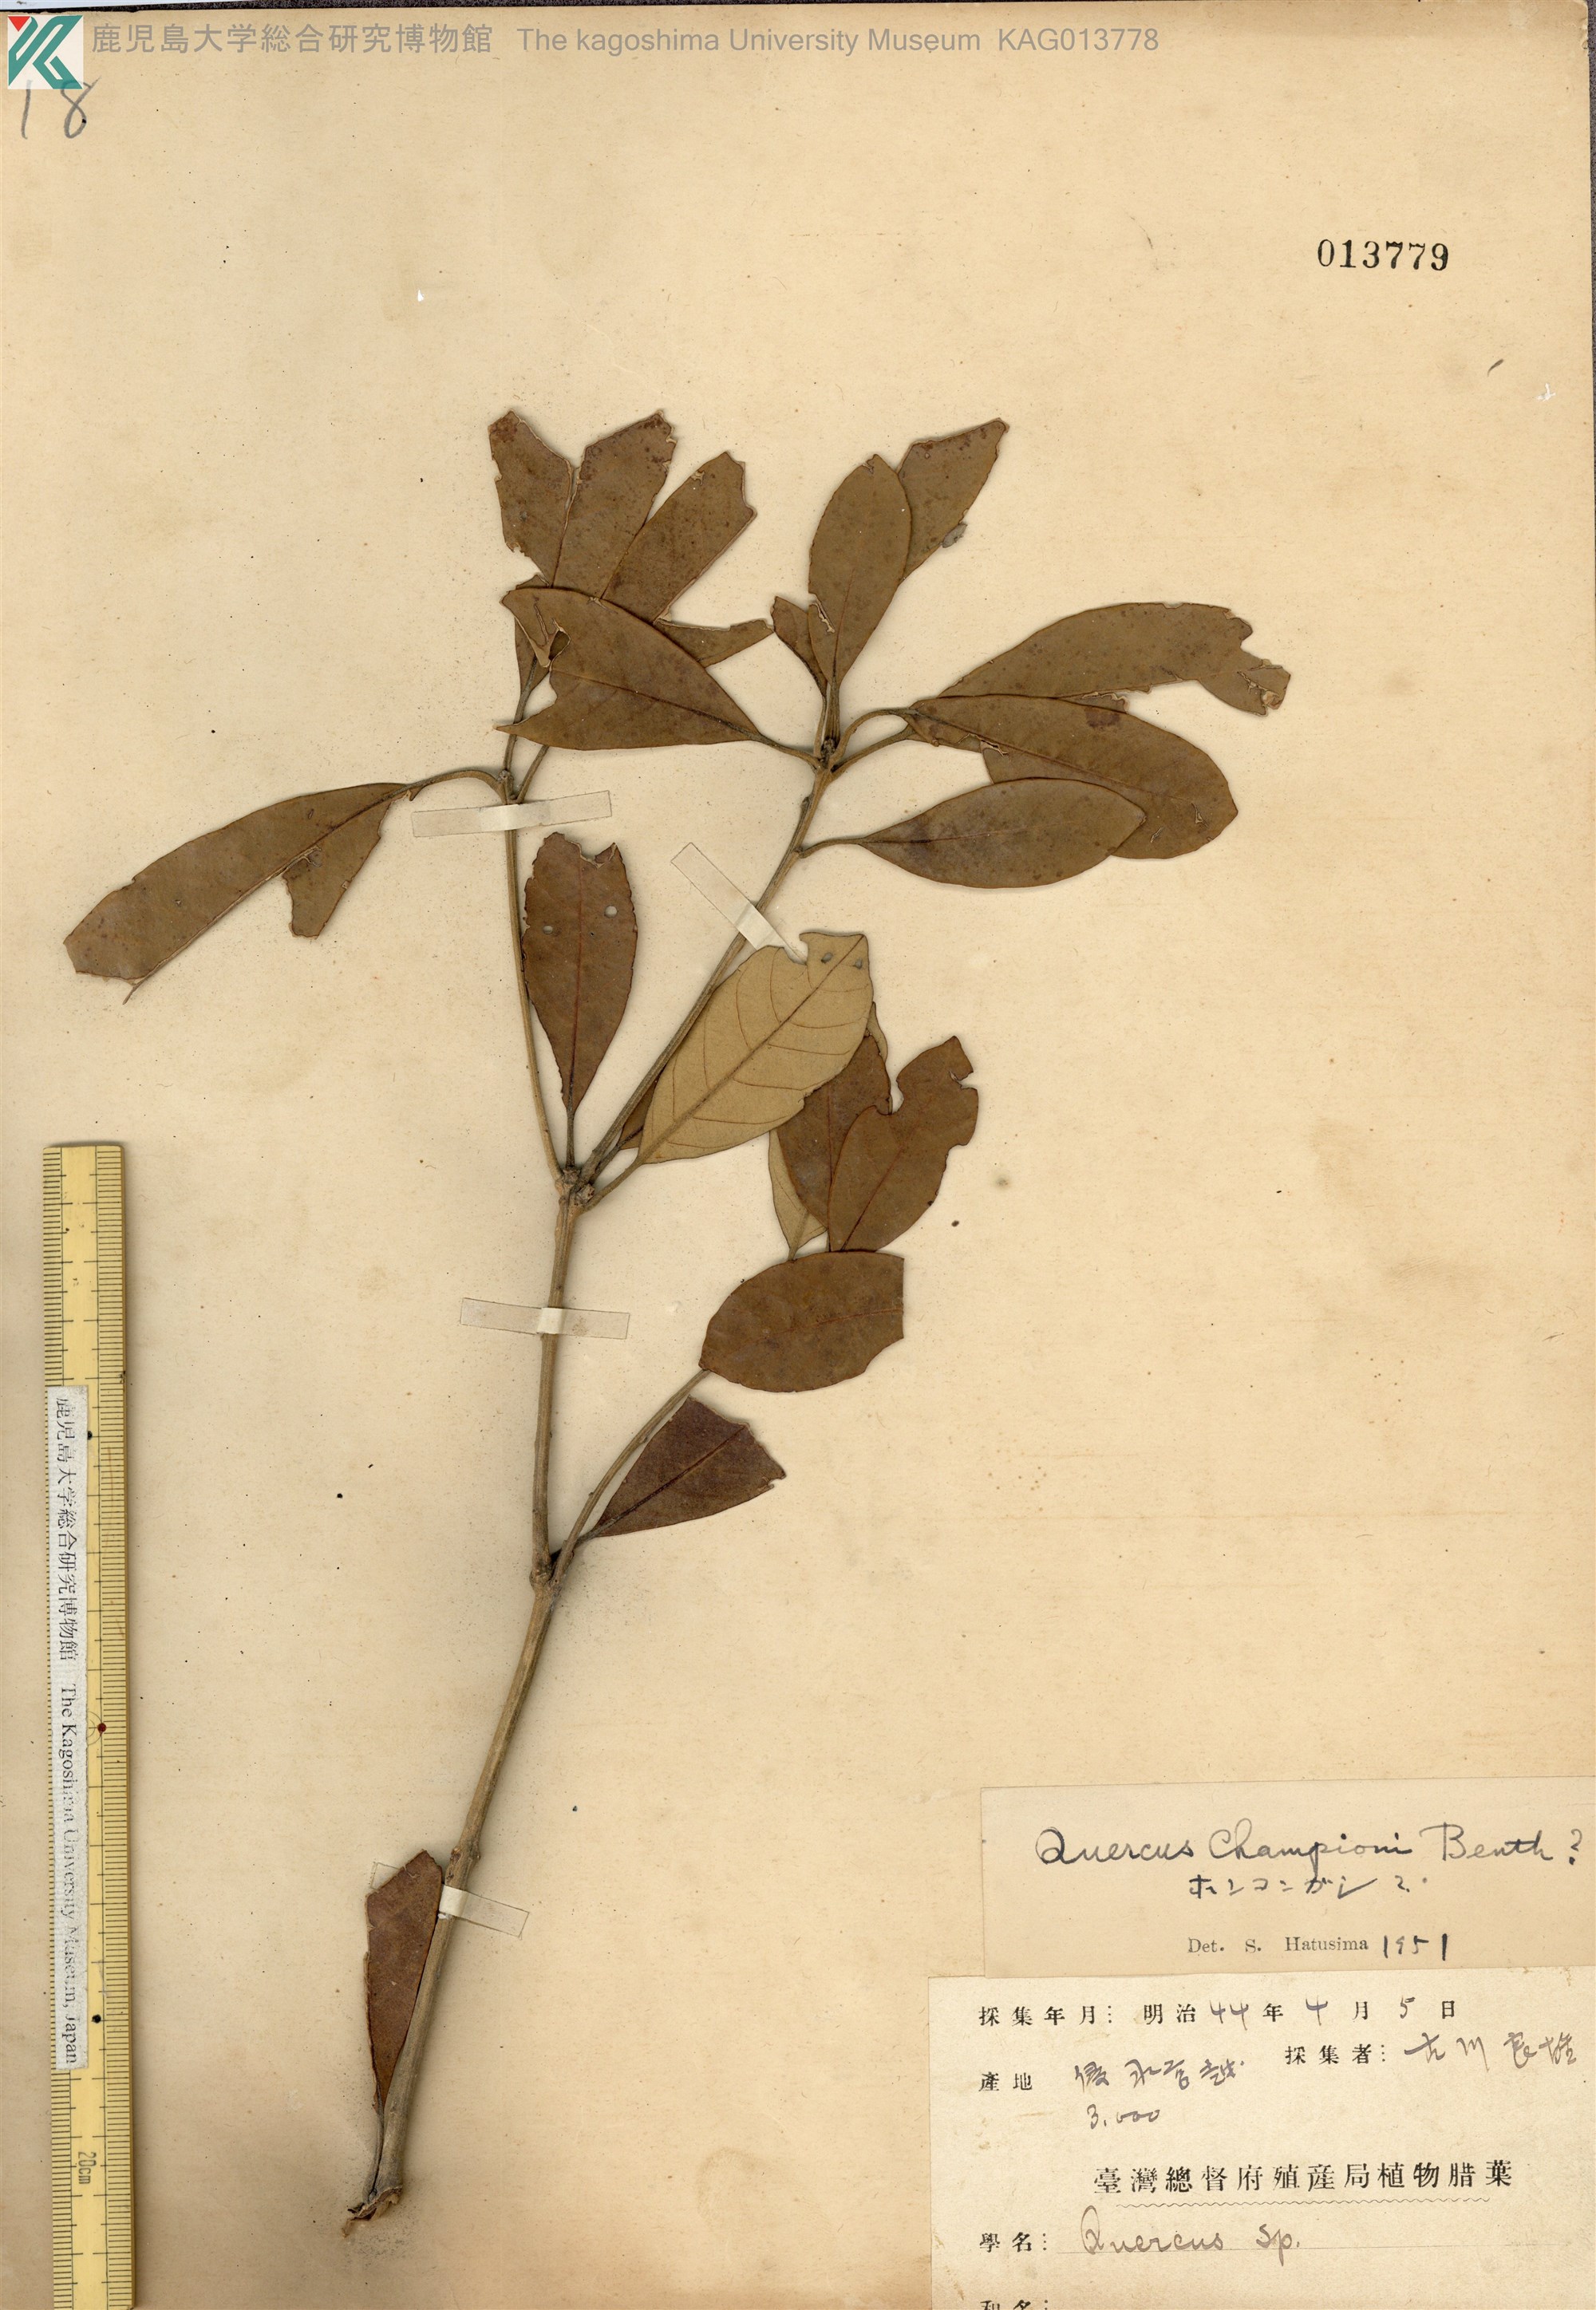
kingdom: Plantae
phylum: Tracheophyta
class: Magnoliopsida
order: Fagales
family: Fagaceae
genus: Quercus
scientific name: Quercus chrysolepis
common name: Canyon live oak
